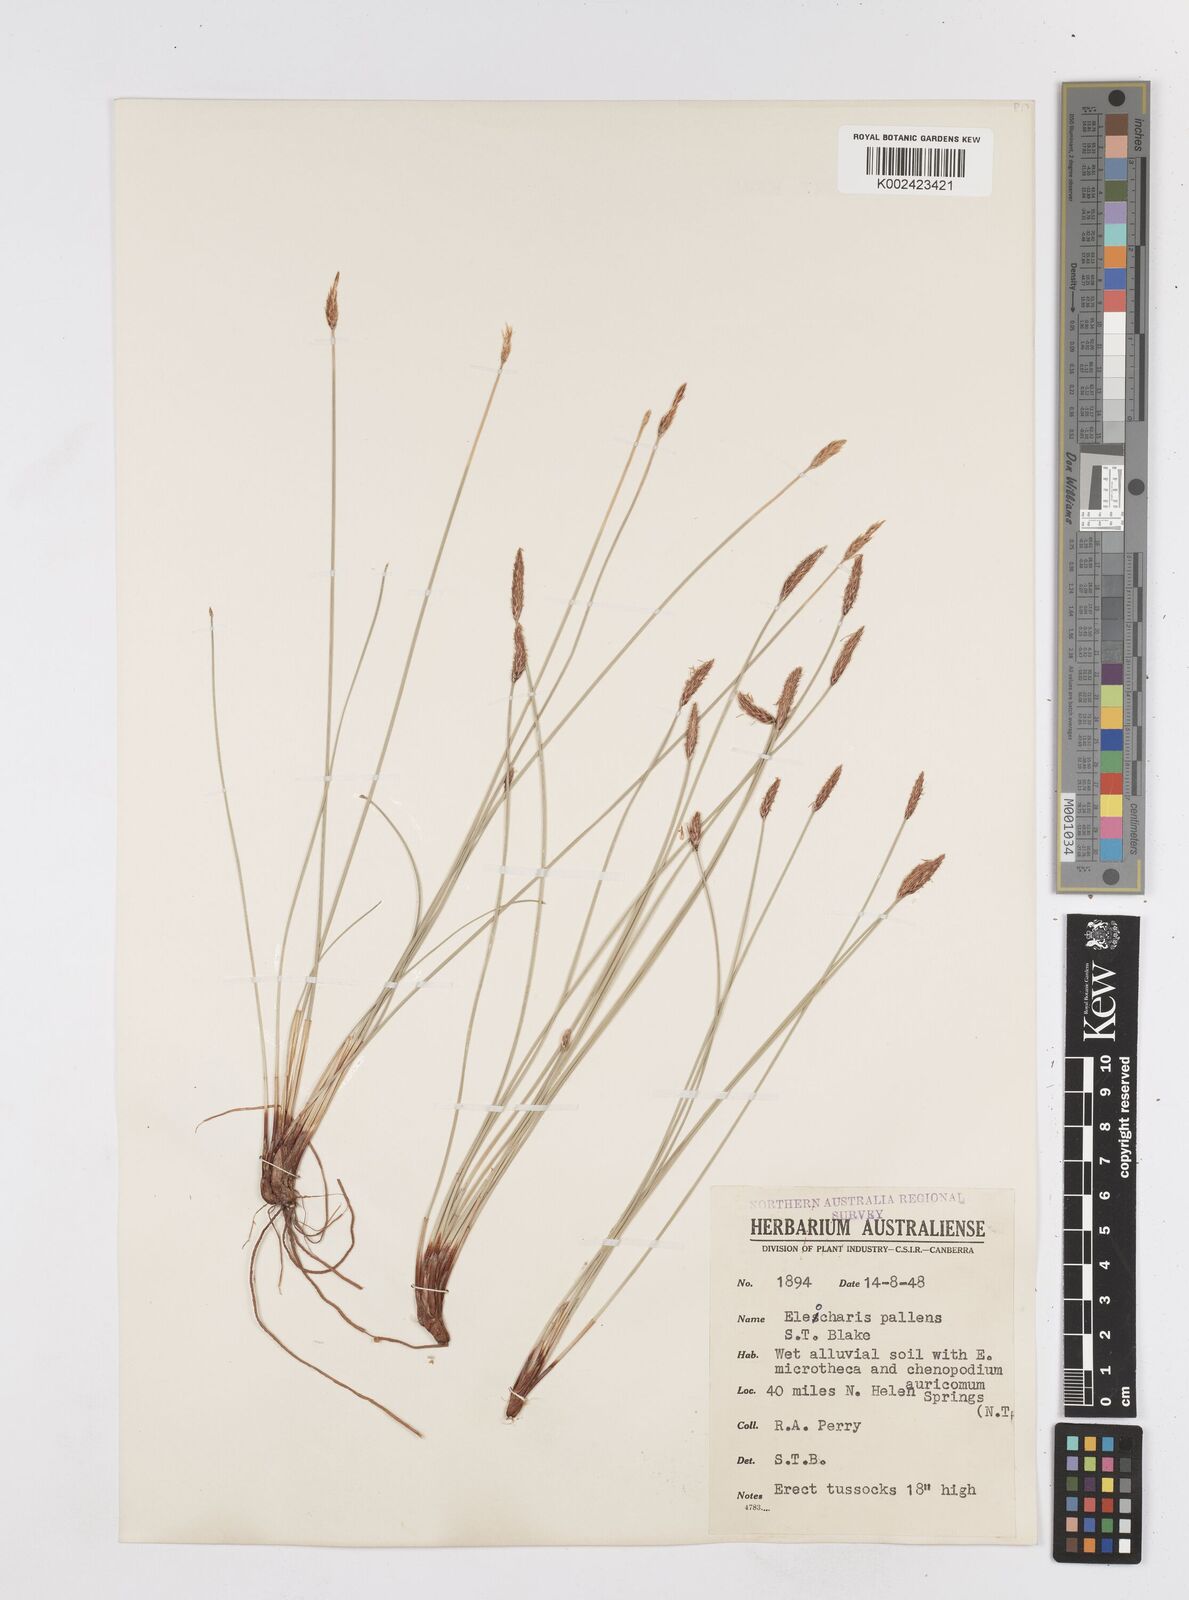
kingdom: Plantae
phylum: Tracheophyta
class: Liliopsida
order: Poales
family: Cyperaceae
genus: Eleocharis
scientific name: Eleocharis acuta
